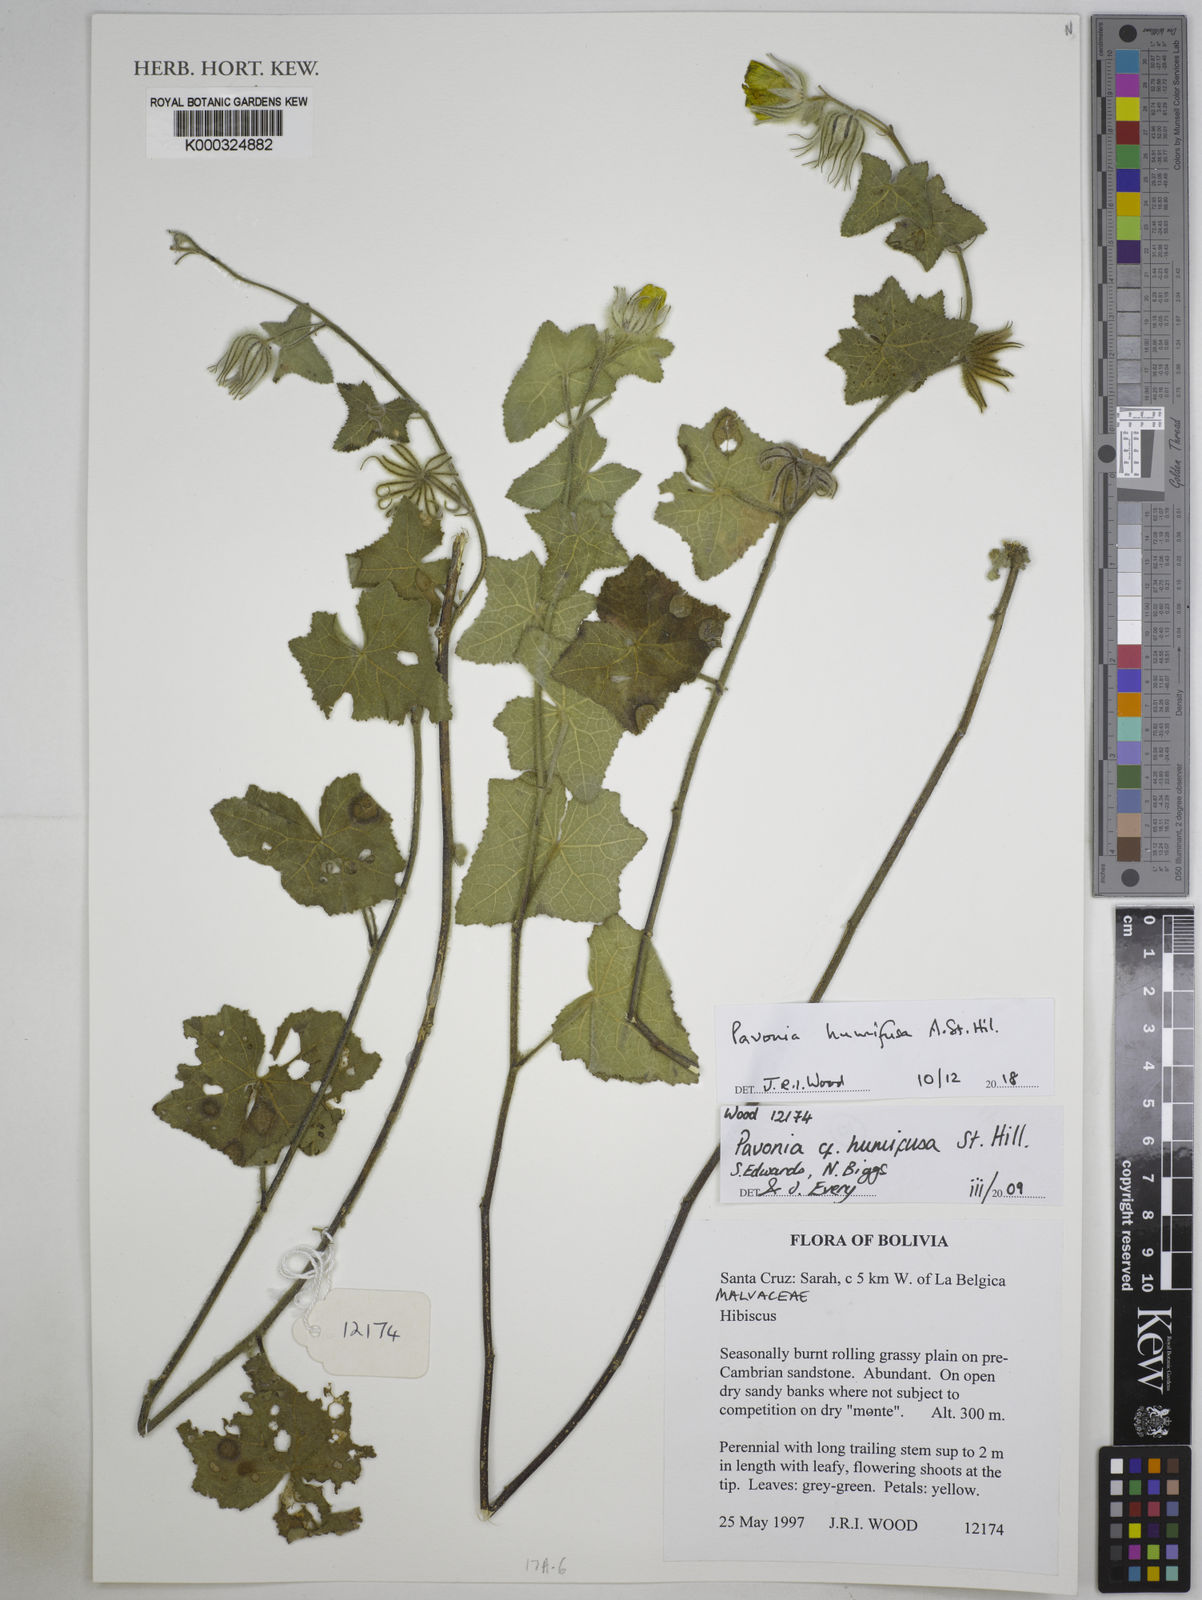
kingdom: Plantae
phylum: Tracheophyta
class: Magnoliopsida
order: Malvales
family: Malvaceae
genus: Pavonia
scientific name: Pavonia humifusa
